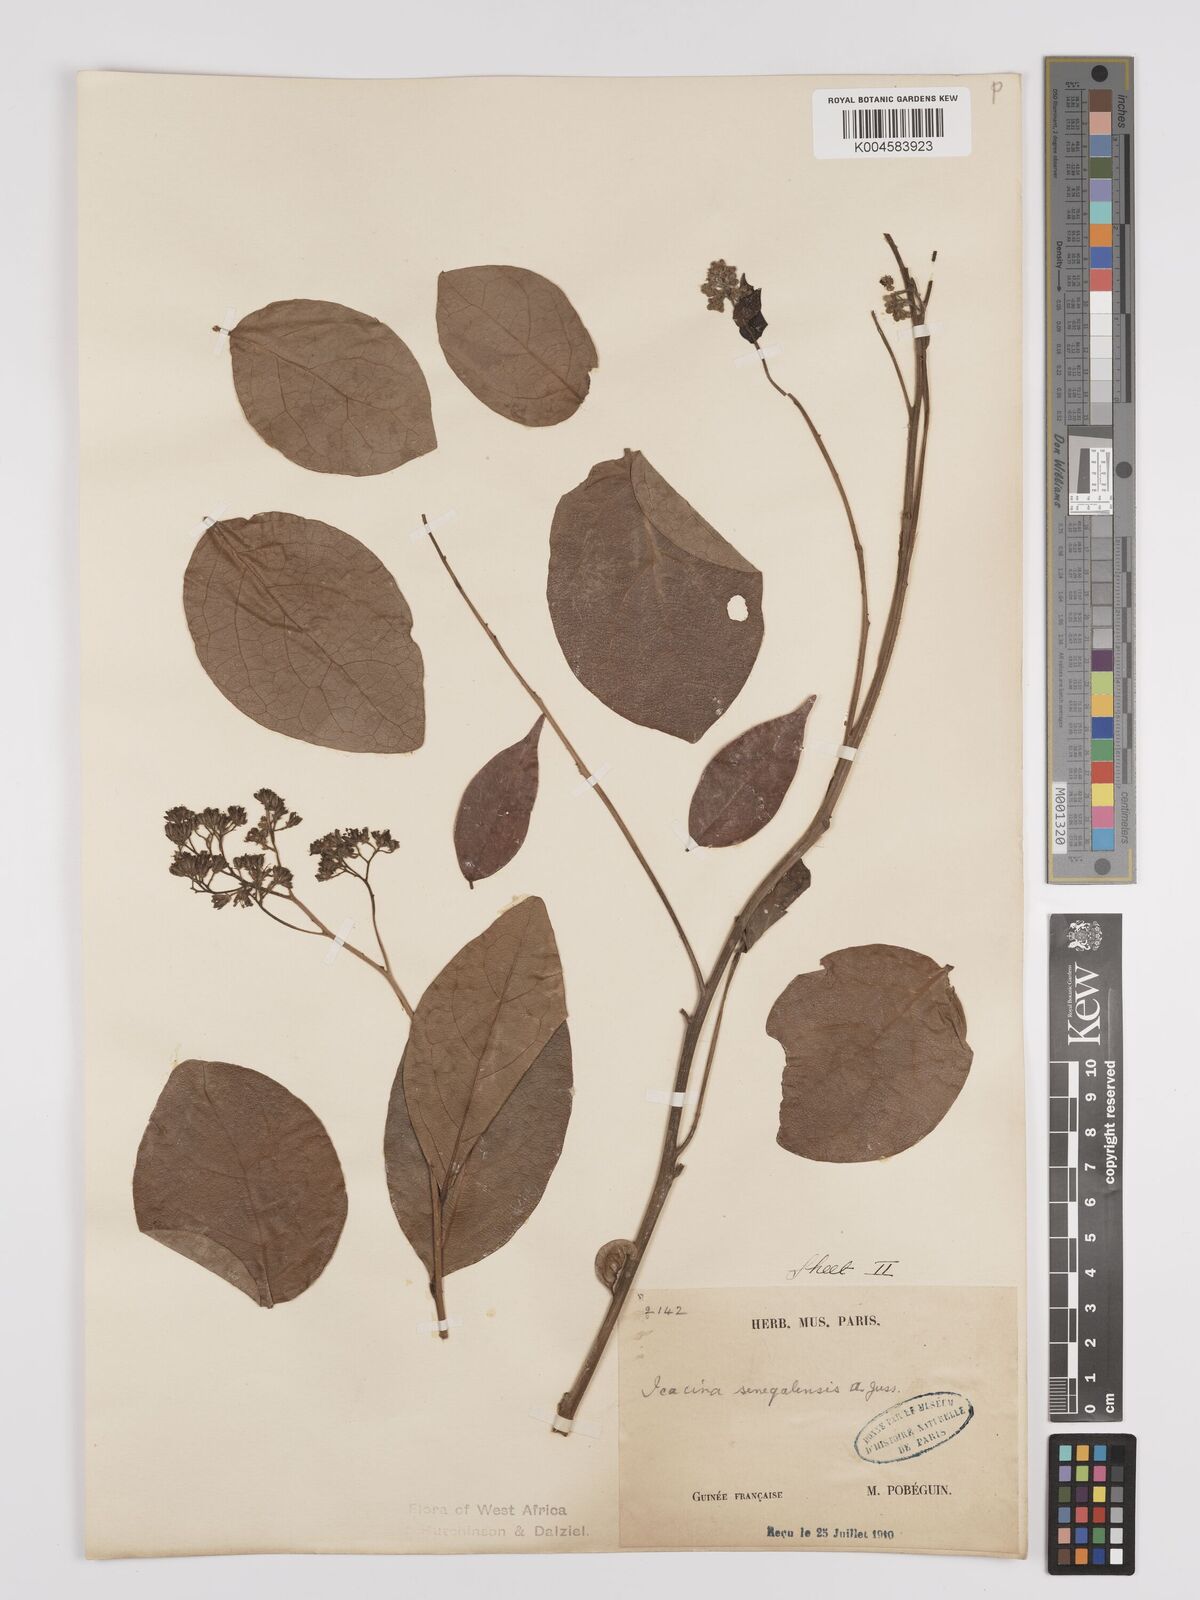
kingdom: Plantae
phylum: Tracheophyta
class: Magnoliopsida
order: Icacinales
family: Icacinaceae
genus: Icacina
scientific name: Icacina oliviformis
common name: False yam
